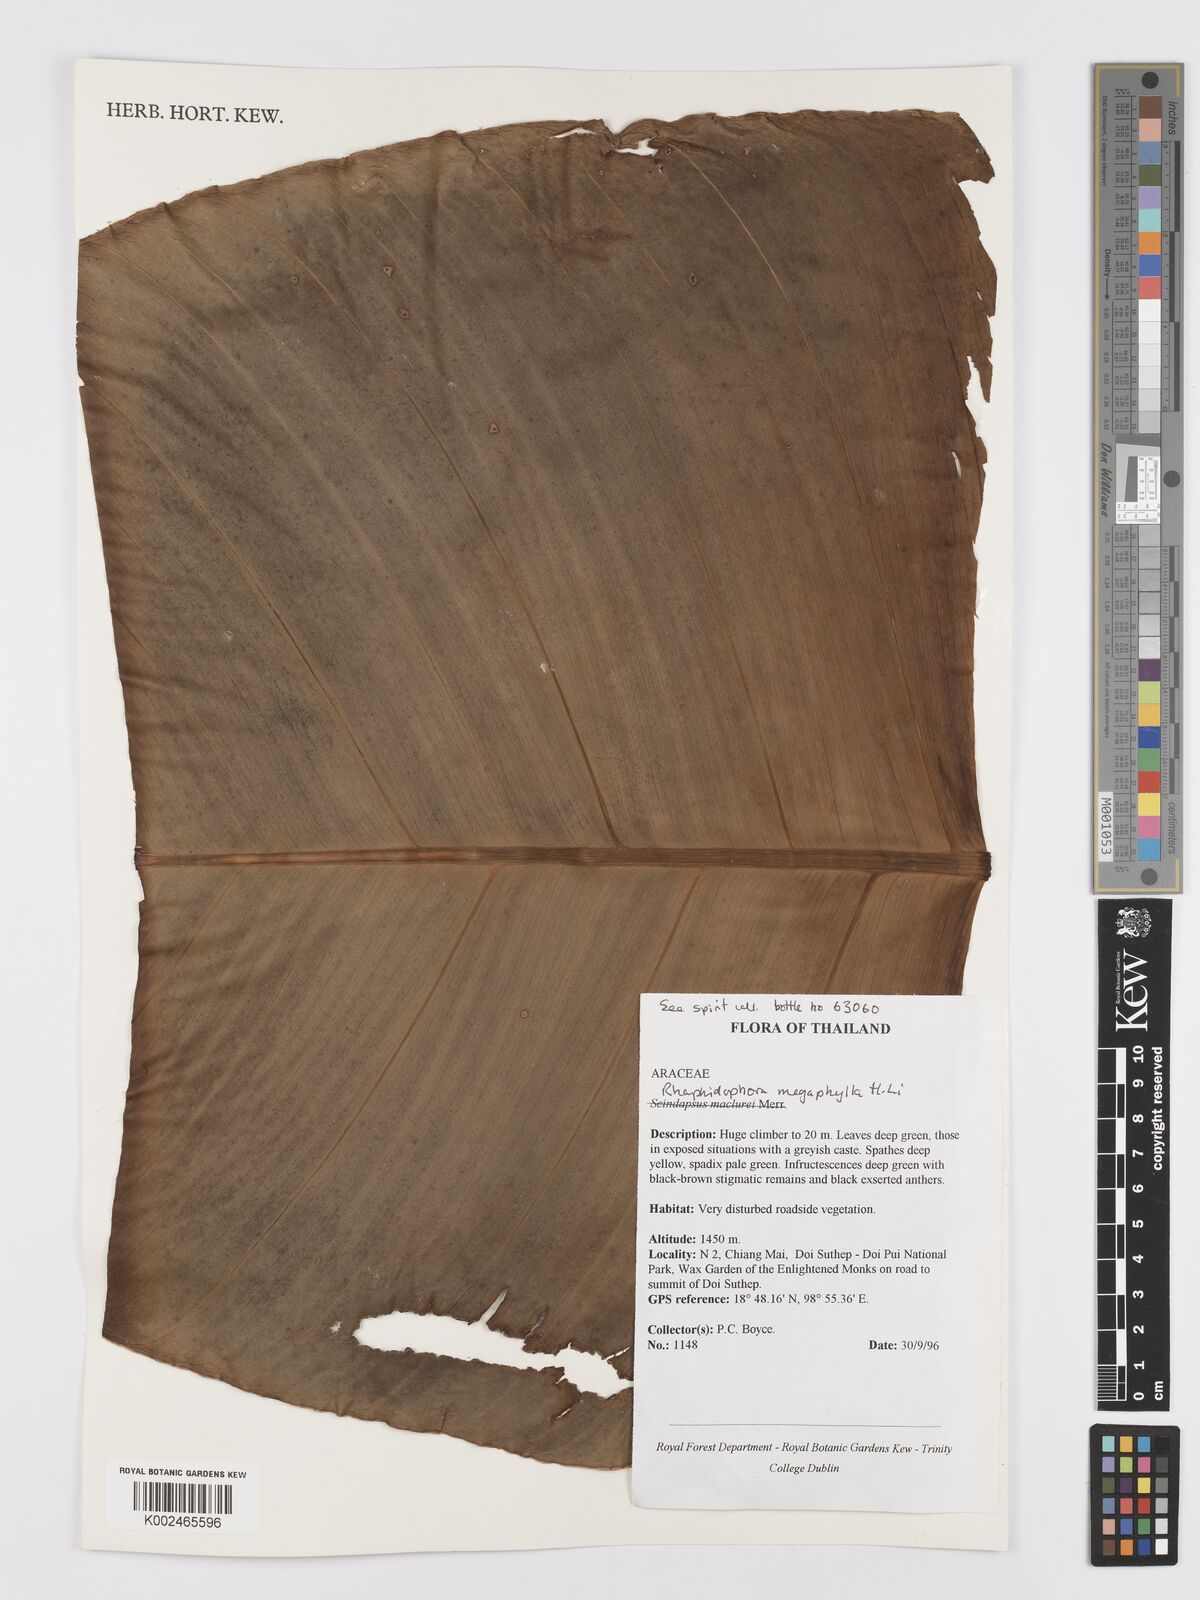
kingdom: Plantae
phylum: Tracheophyta
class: Liliopsida
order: Alismatales
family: Araceae
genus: Rhaphidophora
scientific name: Rhaphidophora megaphylla
